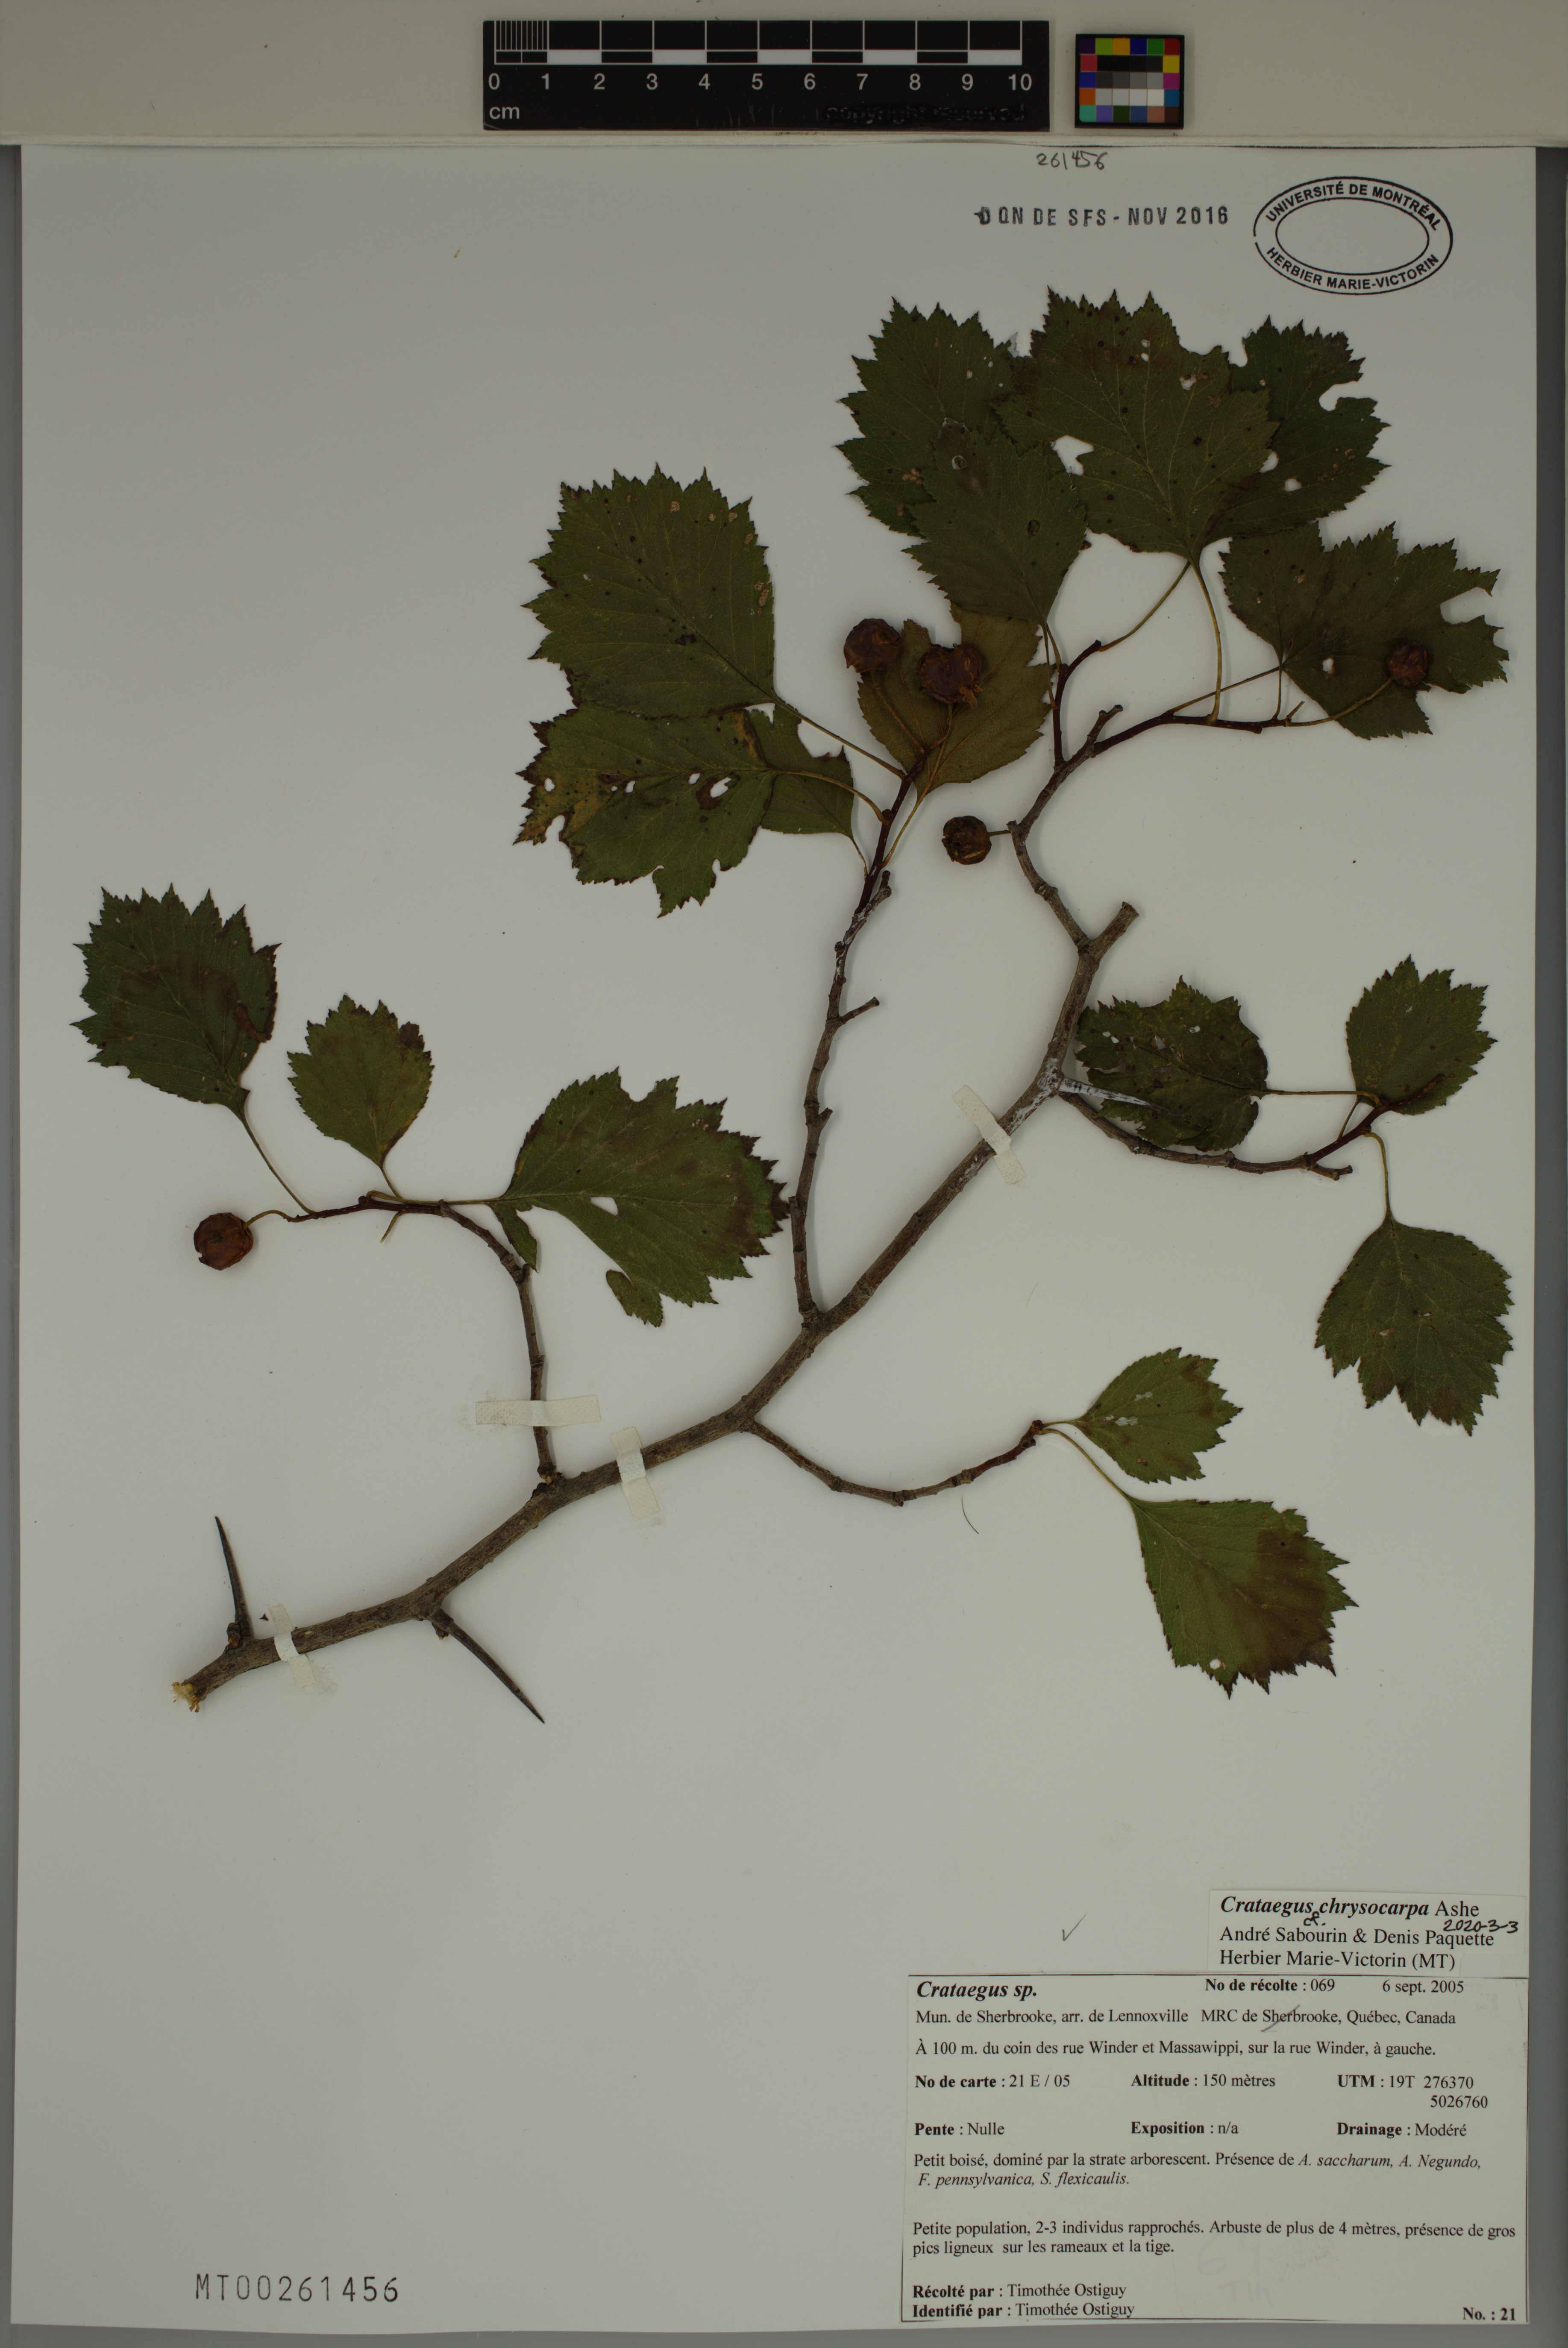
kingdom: Plantae
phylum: Tracheophyta
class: Magnoliopsida
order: Rosales
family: Rosaceae
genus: Crataegus
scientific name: Crataegus chrysocarpa
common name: Fire-berry hawthorn
